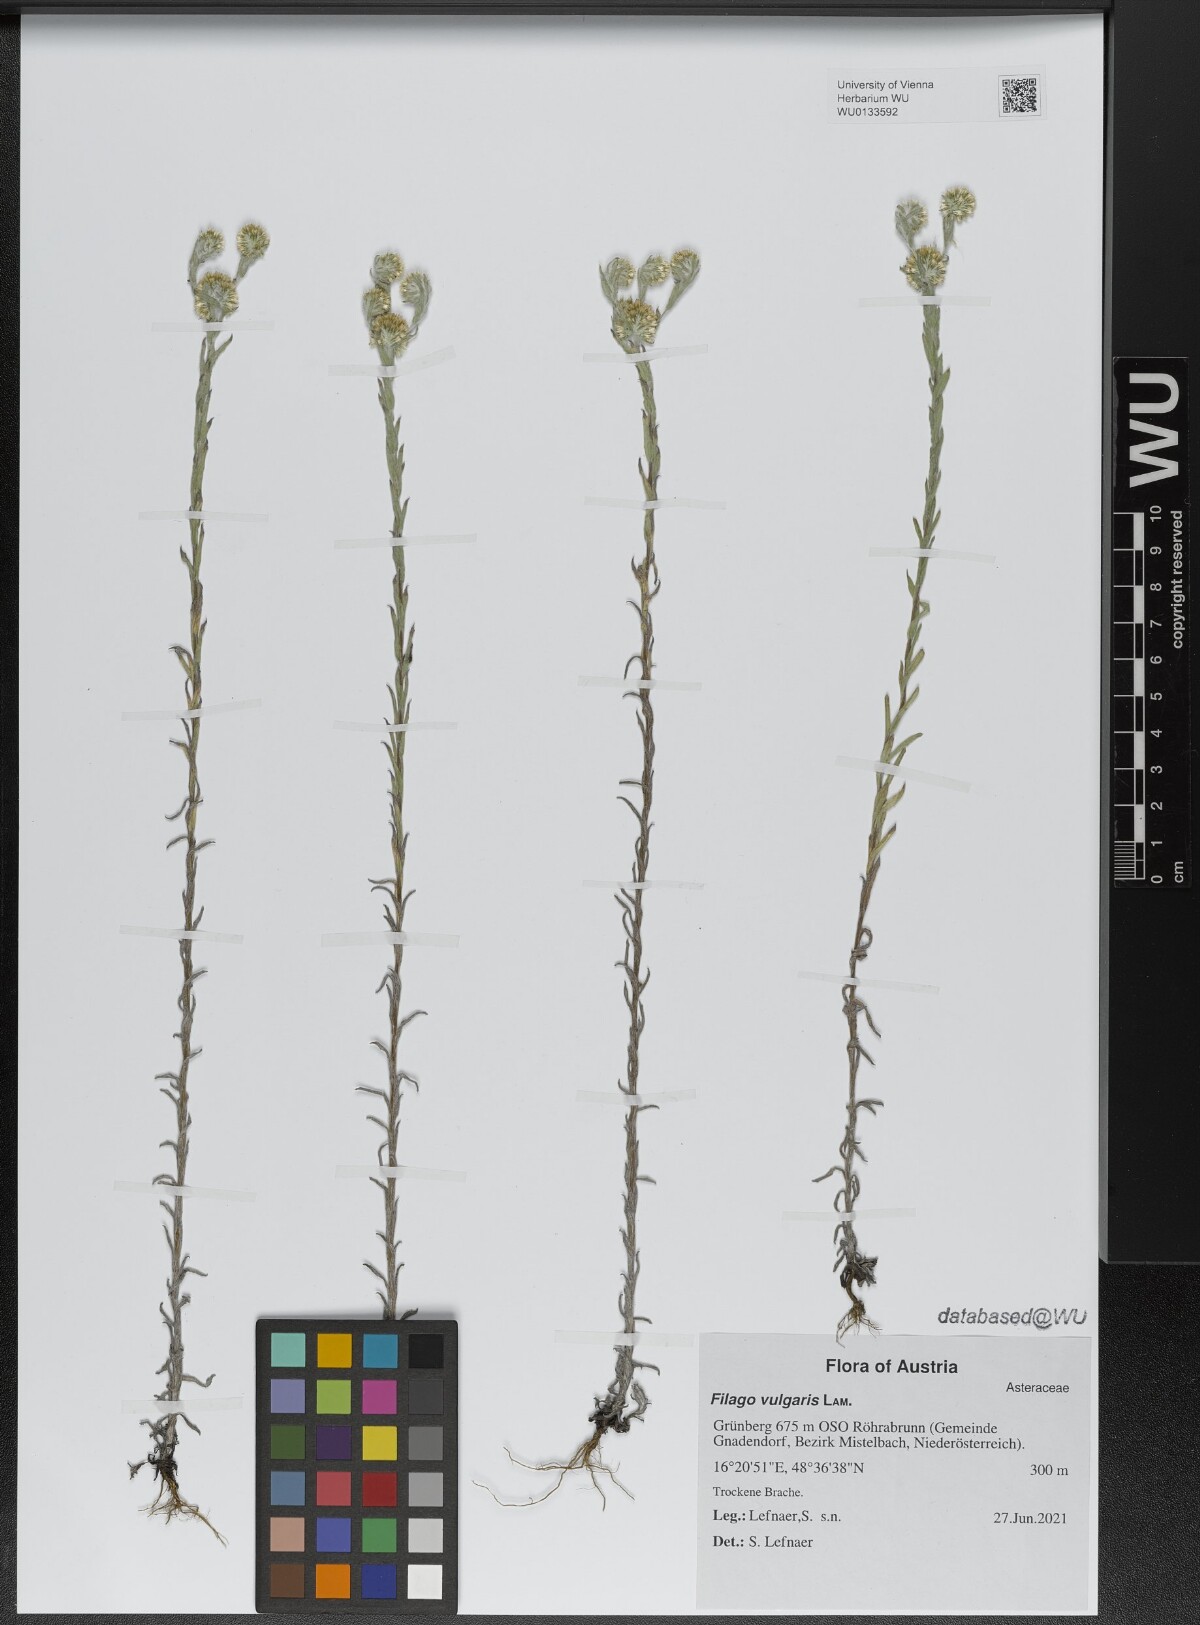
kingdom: Plantae
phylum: Tracheophyta
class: Magnoliopsida
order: Asterales
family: Asteraceae
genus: Filago
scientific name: Filago germanica
